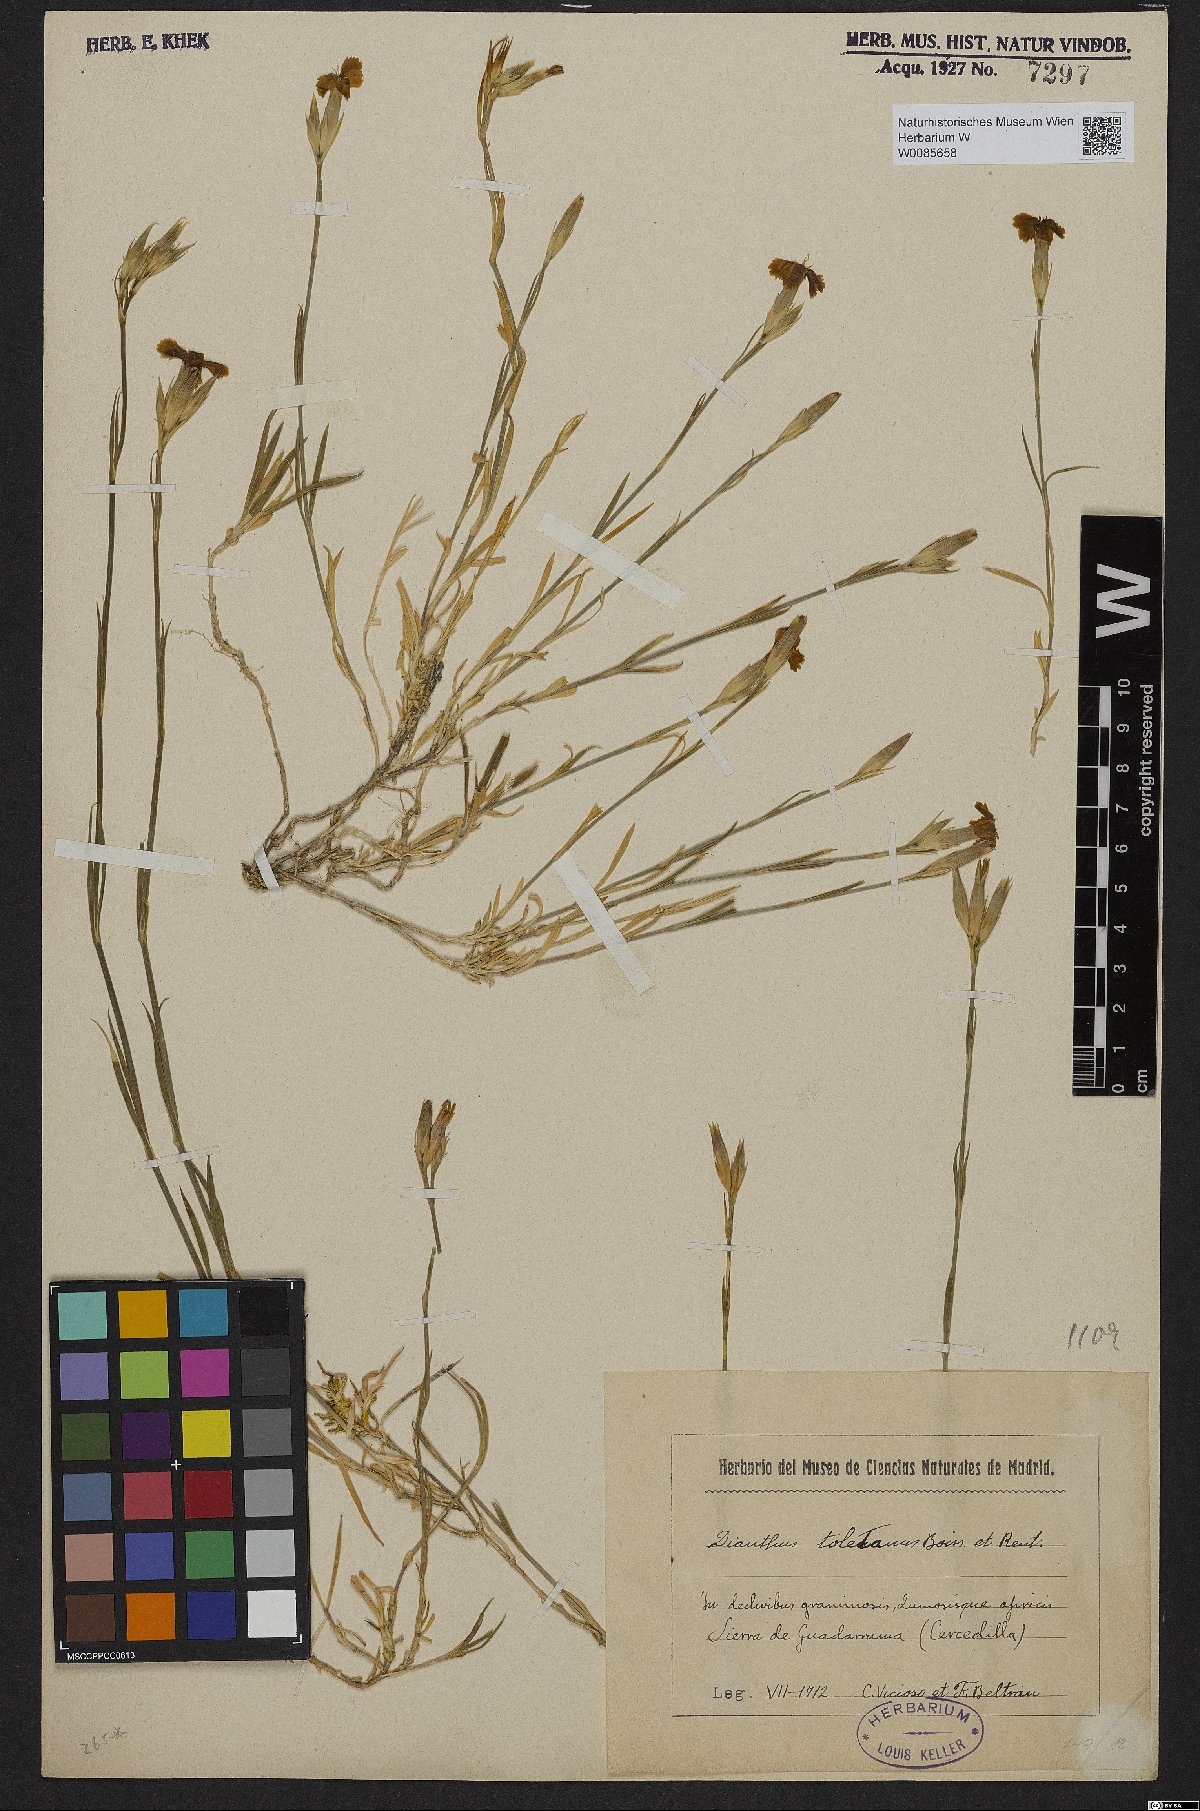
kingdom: Plantae
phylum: Tracheophyta
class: Magnoliopsida
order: Caryophyllales
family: Caryophyllaceae
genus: Dianthus
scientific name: Dianthus toletanus
